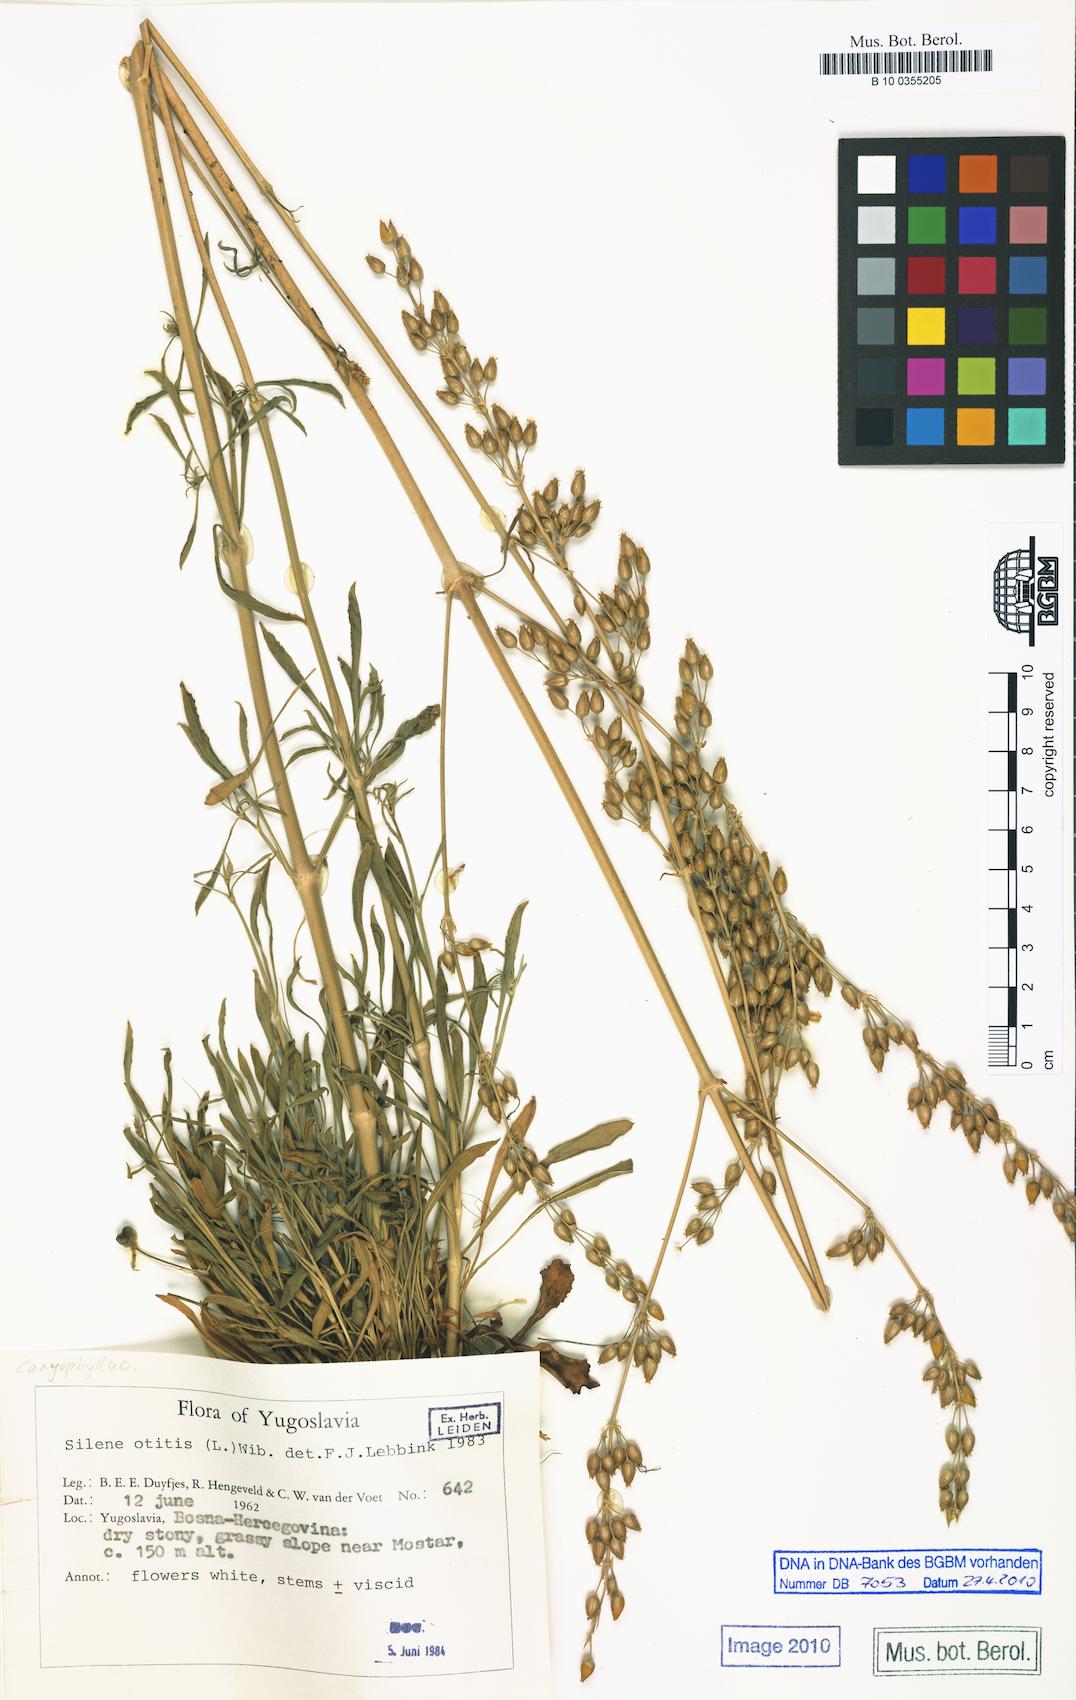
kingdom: Plantae
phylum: Tracheophyta
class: Magnoliopsida
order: Caryophyllales
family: Caryophyllaceae
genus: Silene
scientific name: Silene otites
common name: Spanish catchfly
